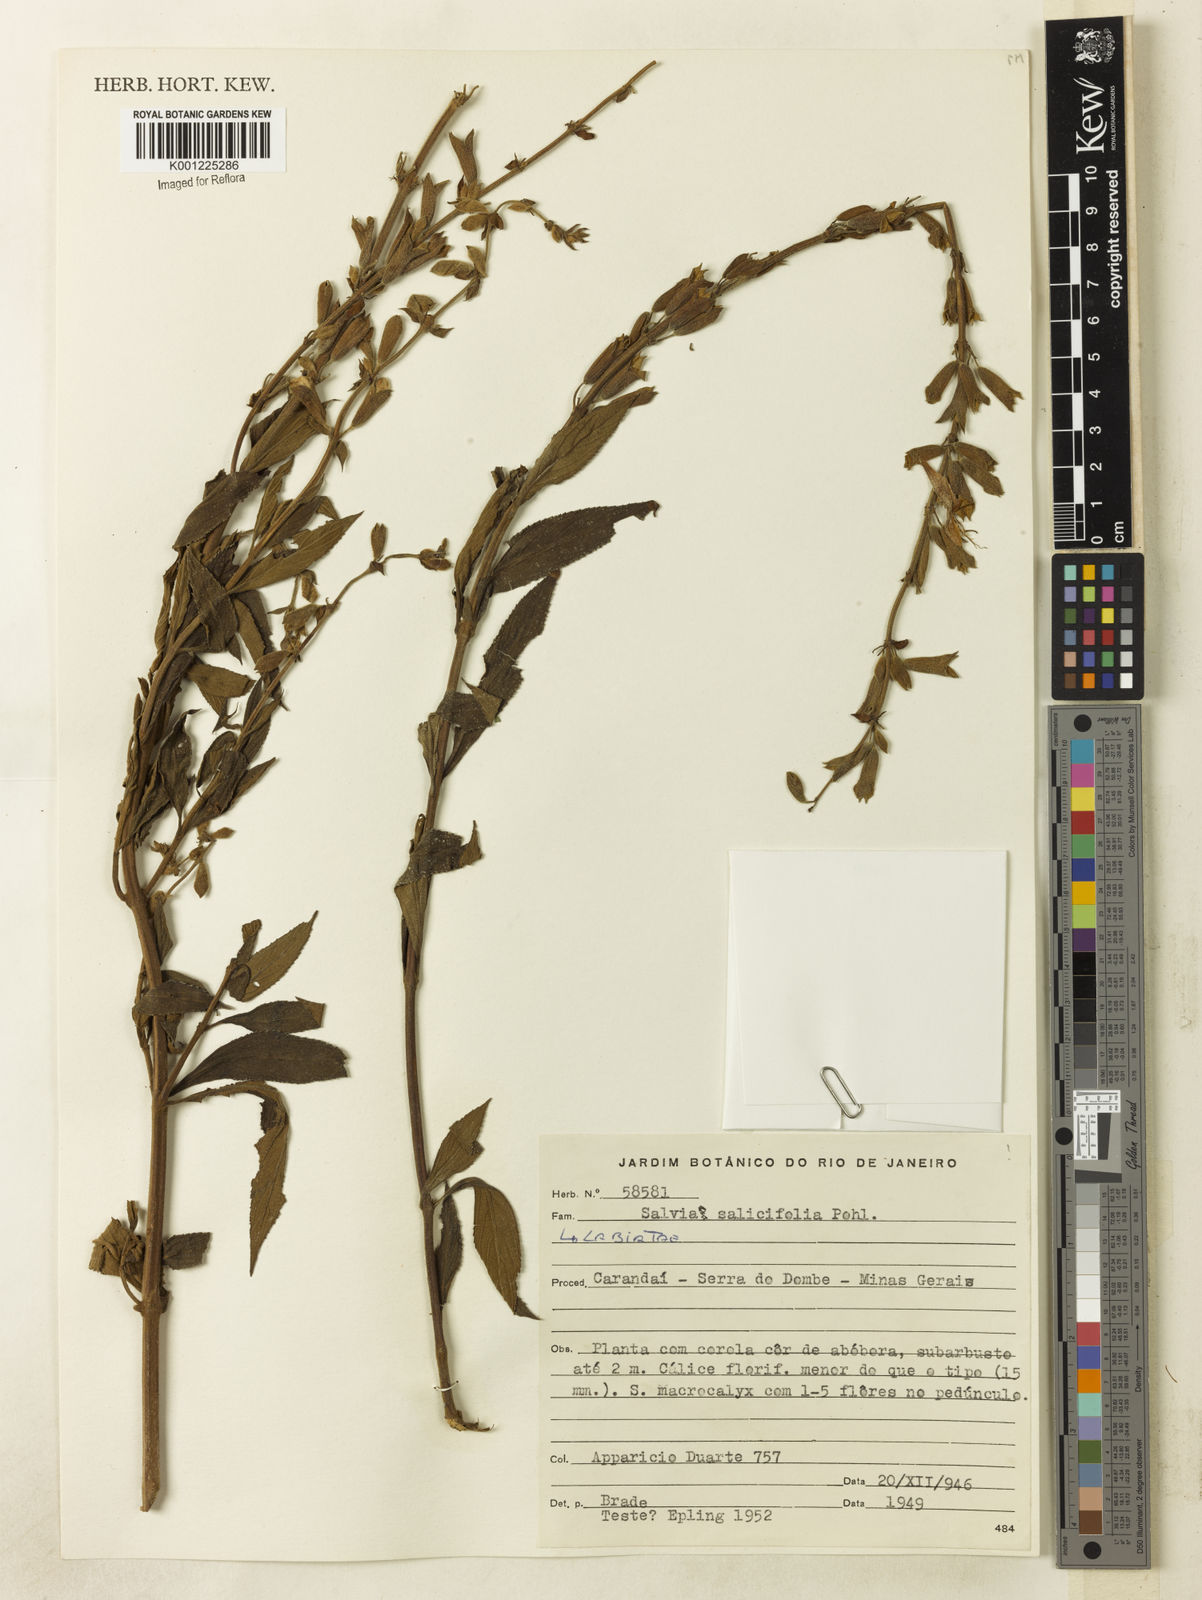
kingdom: Plantae
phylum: Tracheophyta
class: Magnoliopsida
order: Lamiales
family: Lamiaceae
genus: Salvia
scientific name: Salvia salicifolia
